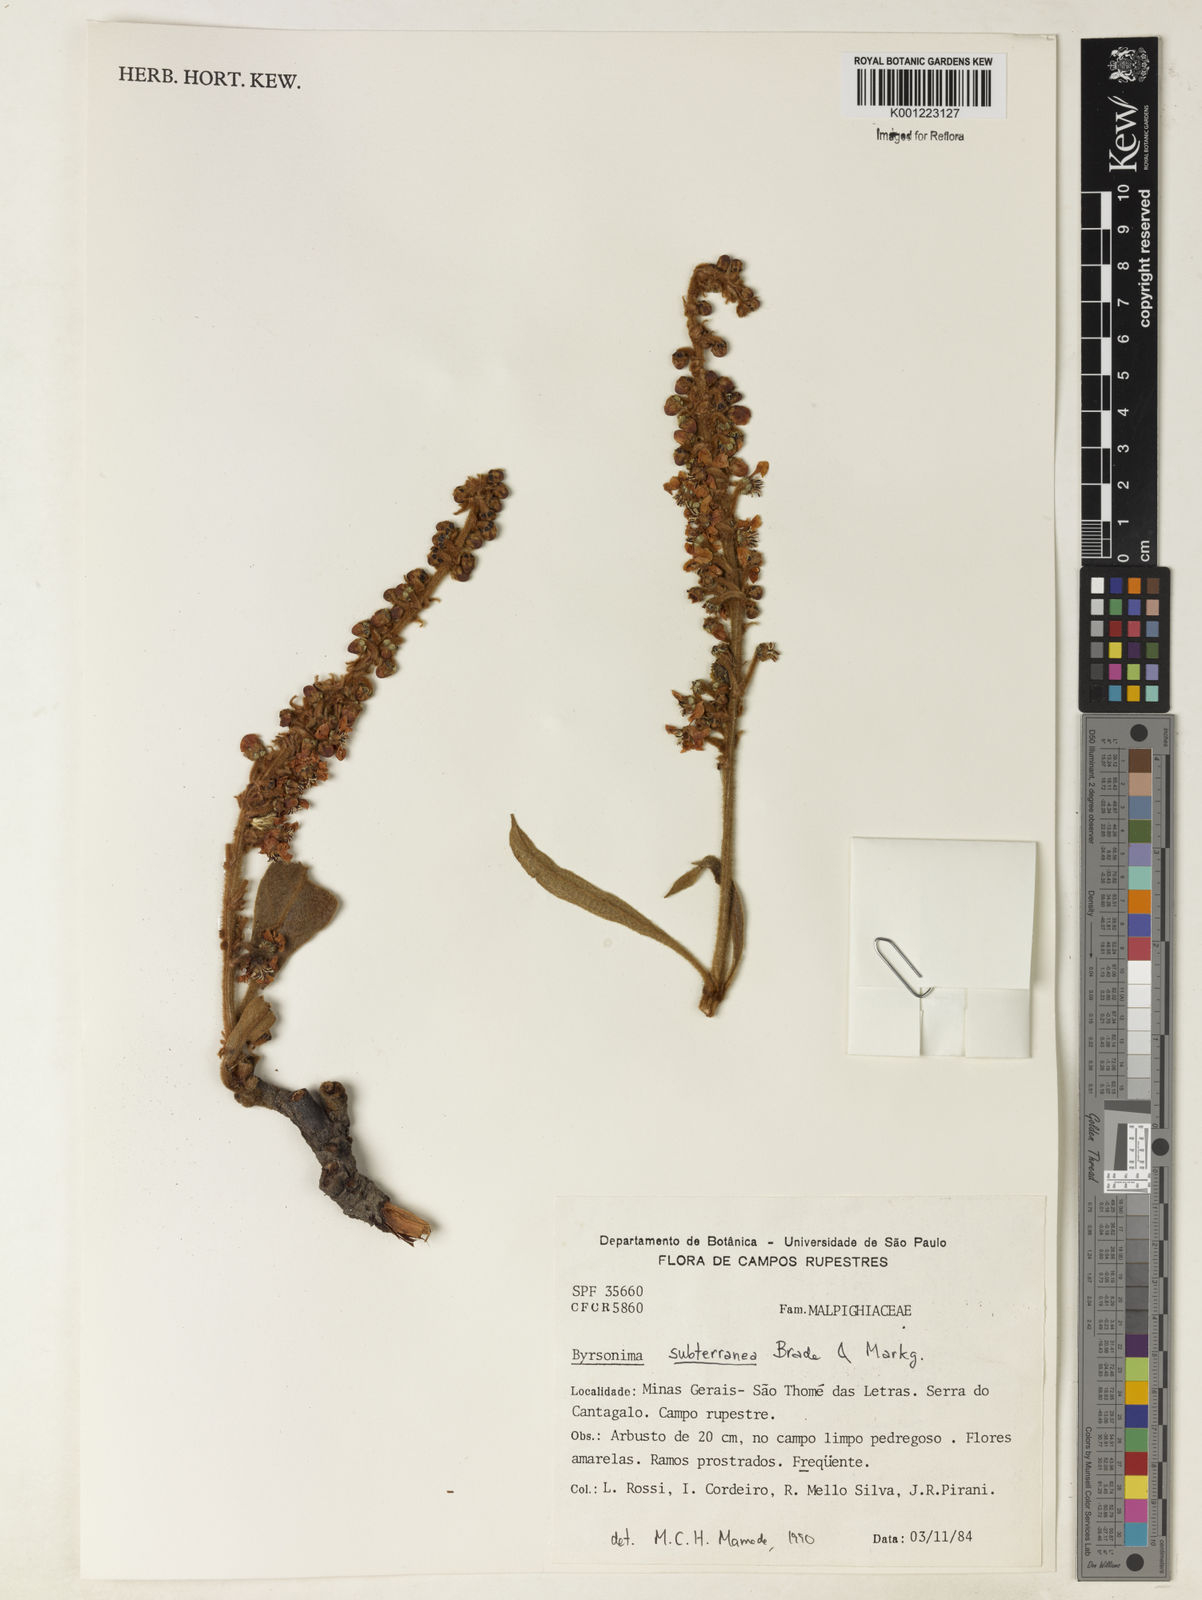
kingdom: Plantae
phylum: Tracheophyta
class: Magnoliopsida
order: Malpighiales
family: Malpighiaceae
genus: Byrsonima
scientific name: Byrsonima subterranea
